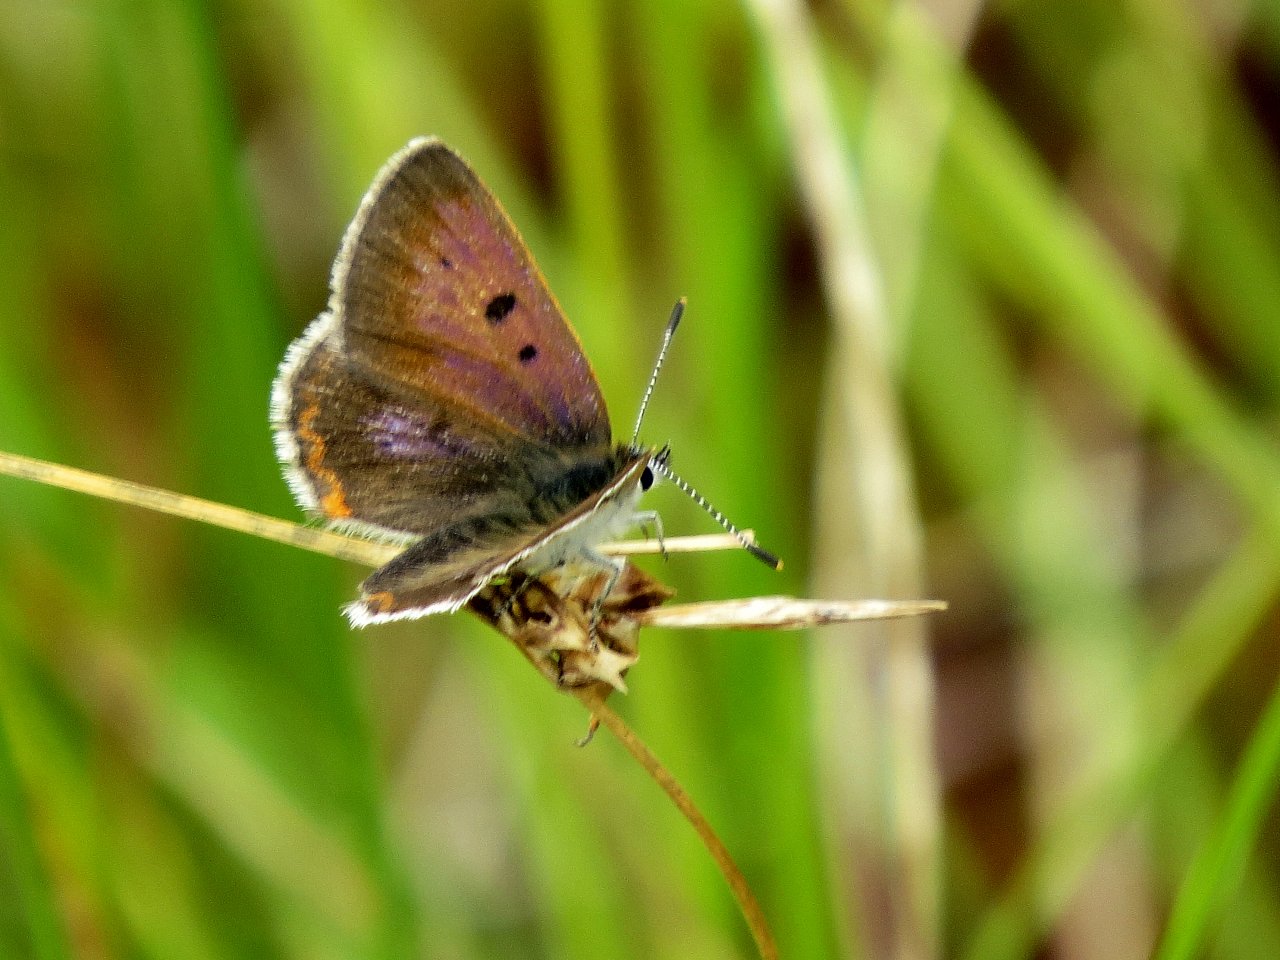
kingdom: Animalia
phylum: Arthropoda
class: Insecta
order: Lepidoptera
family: Sesiidae
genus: Sesia
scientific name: Sesia Lycaena epixanthe
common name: Bog Copper
